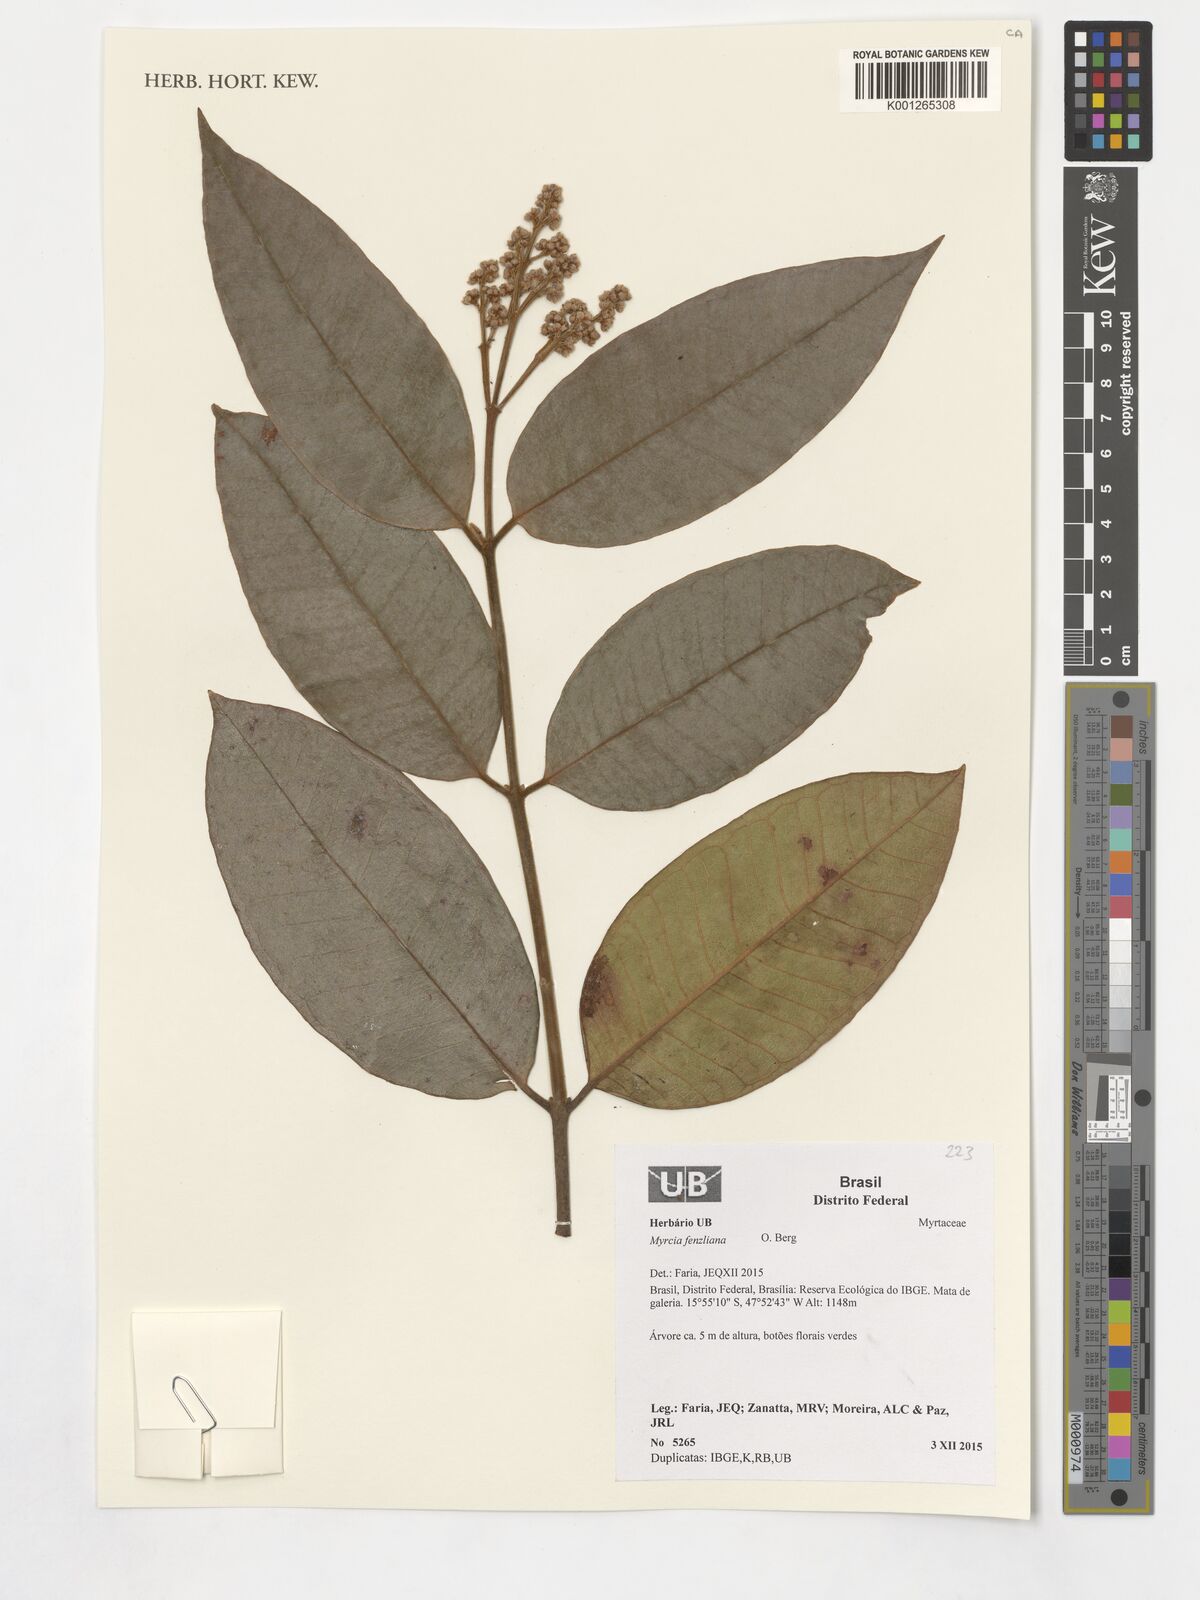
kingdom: Plantae
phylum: Tracheophyta
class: Magnoliopsida
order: Myrtales
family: Myrtaceae
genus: Myrcia
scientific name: Myrcia fenzliana
